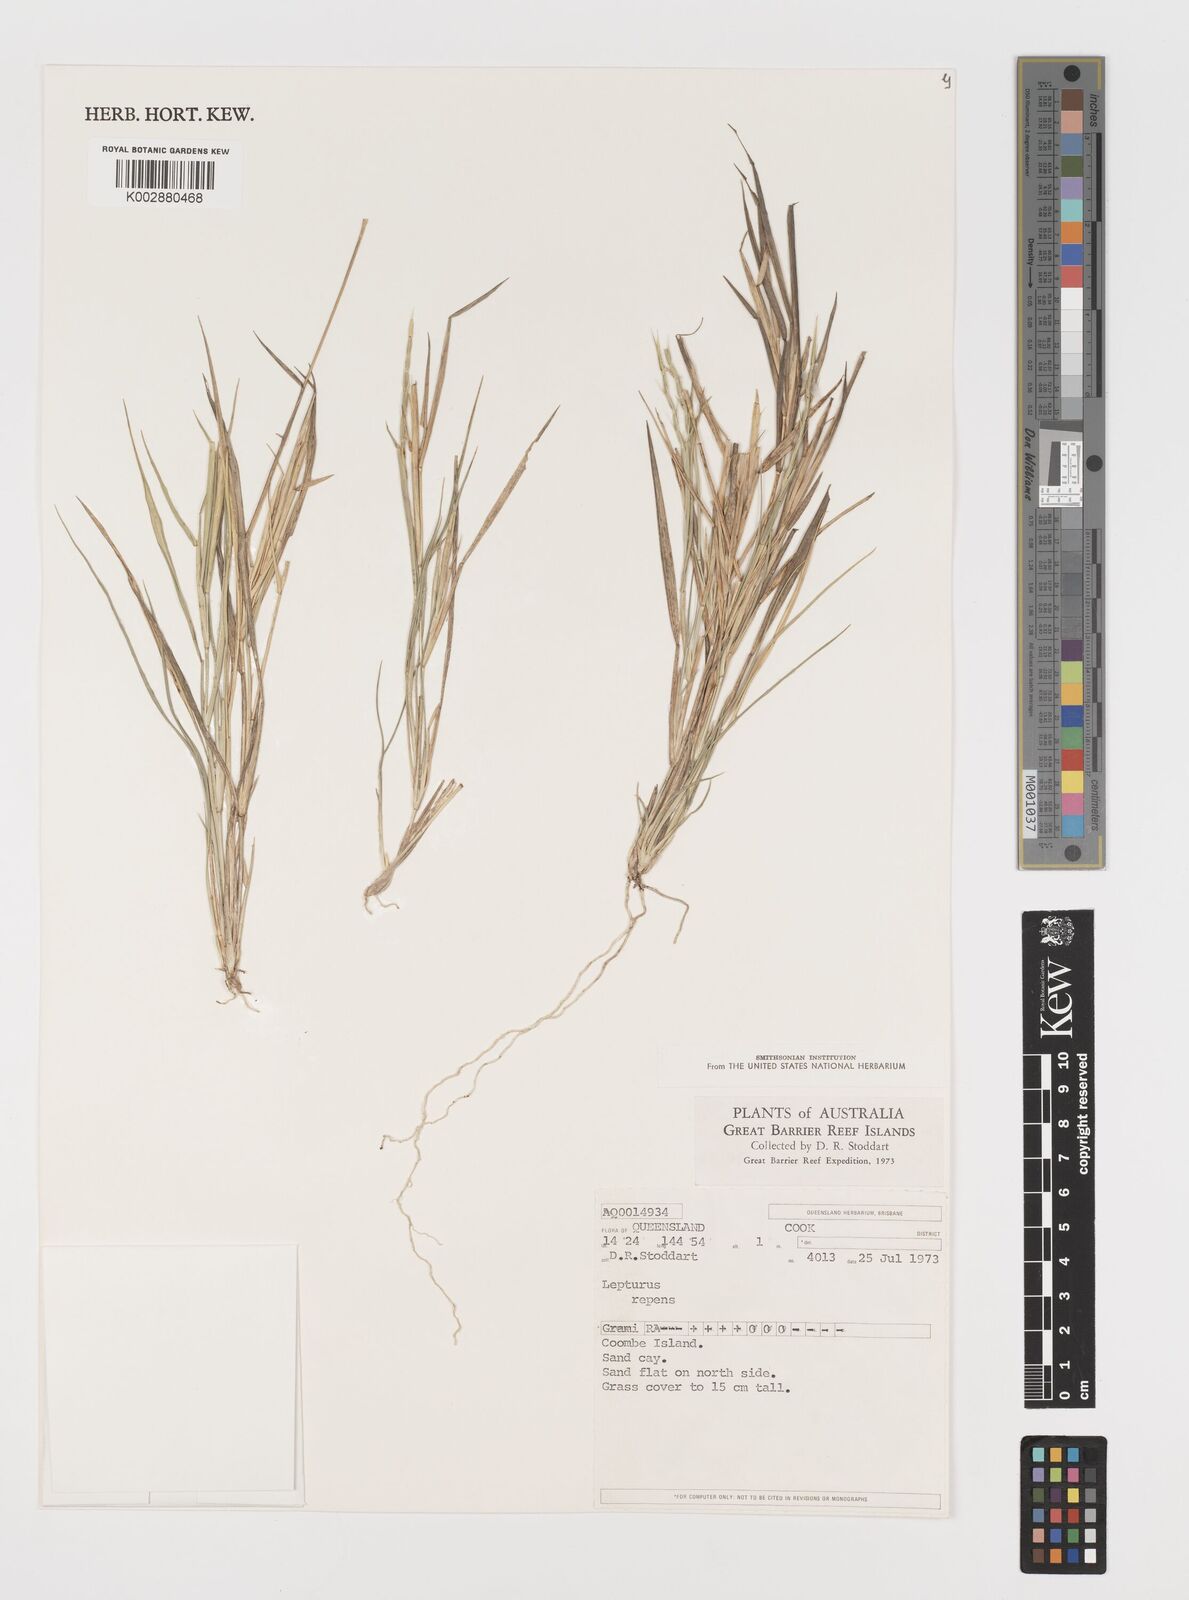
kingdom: Plantae
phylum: Tracheophyta
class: Liliopsida
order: Poales
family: Poaceae
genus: Lepturus
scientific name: Lepturus repens
